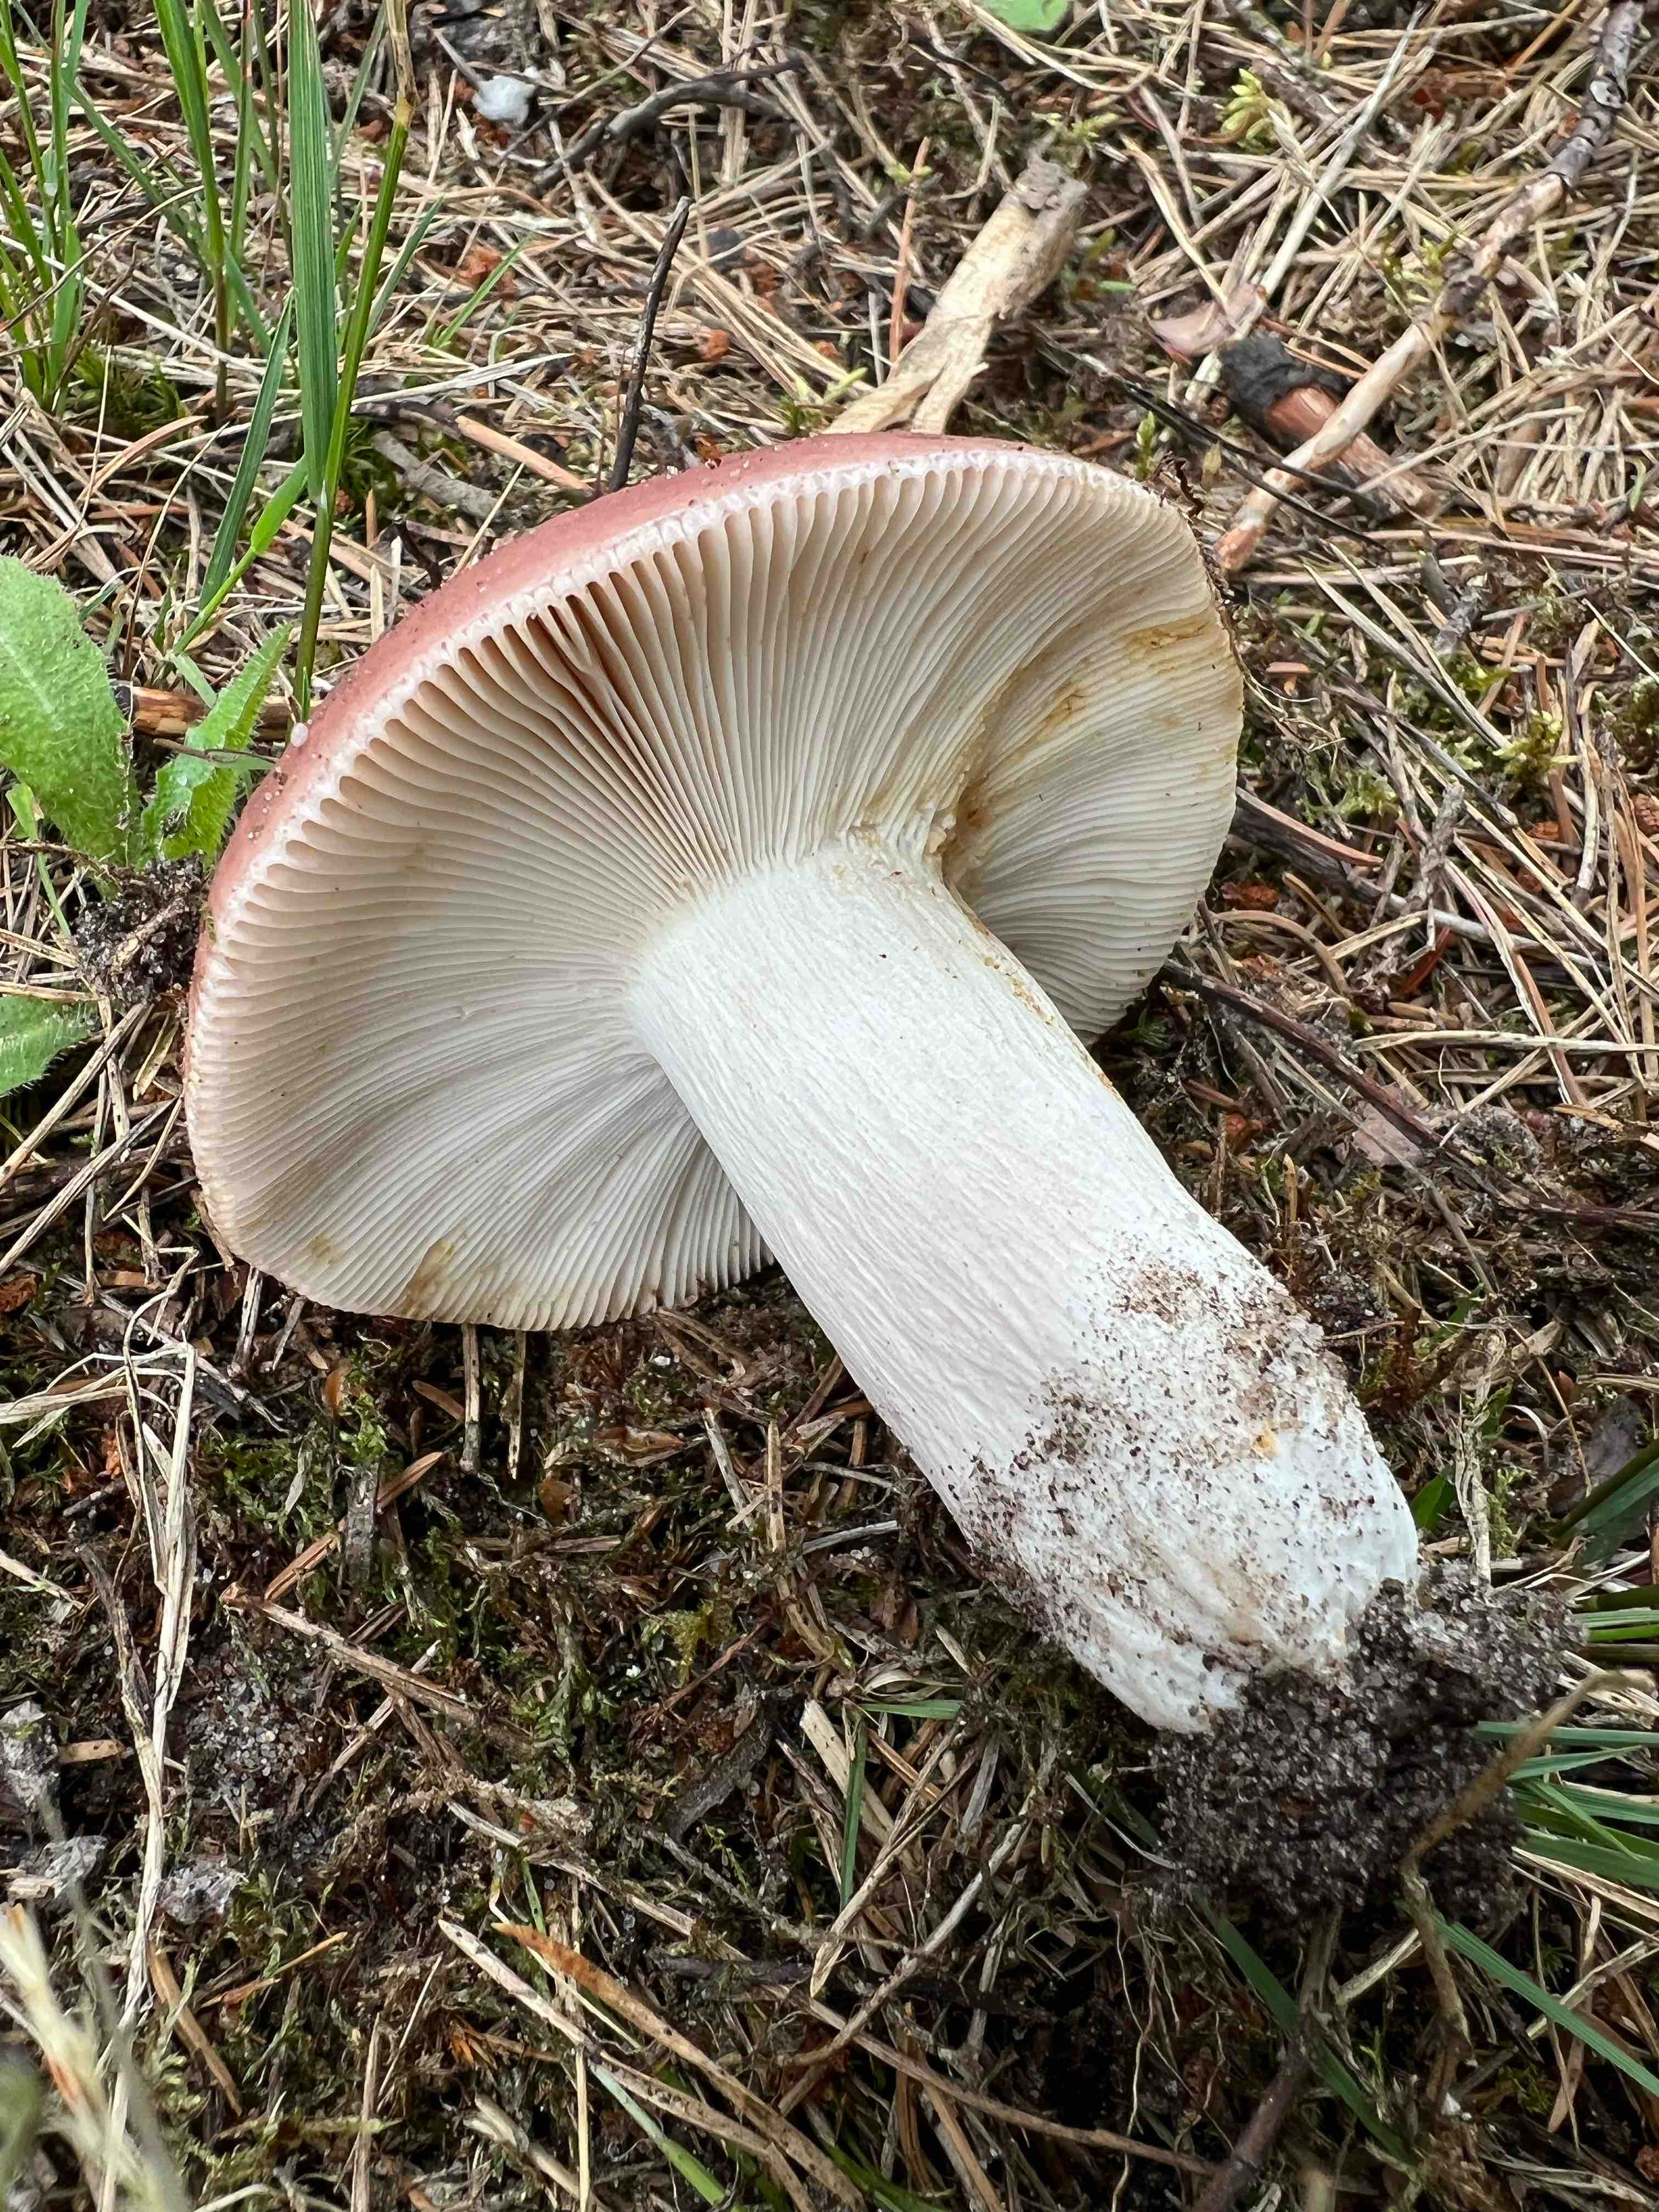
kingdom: Fungi
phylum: Basidiomycota
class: Agaricomycetes
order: Russulales
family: Russulaceae
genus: Russula
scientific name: Russula vesca
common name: spiselig skørhat
